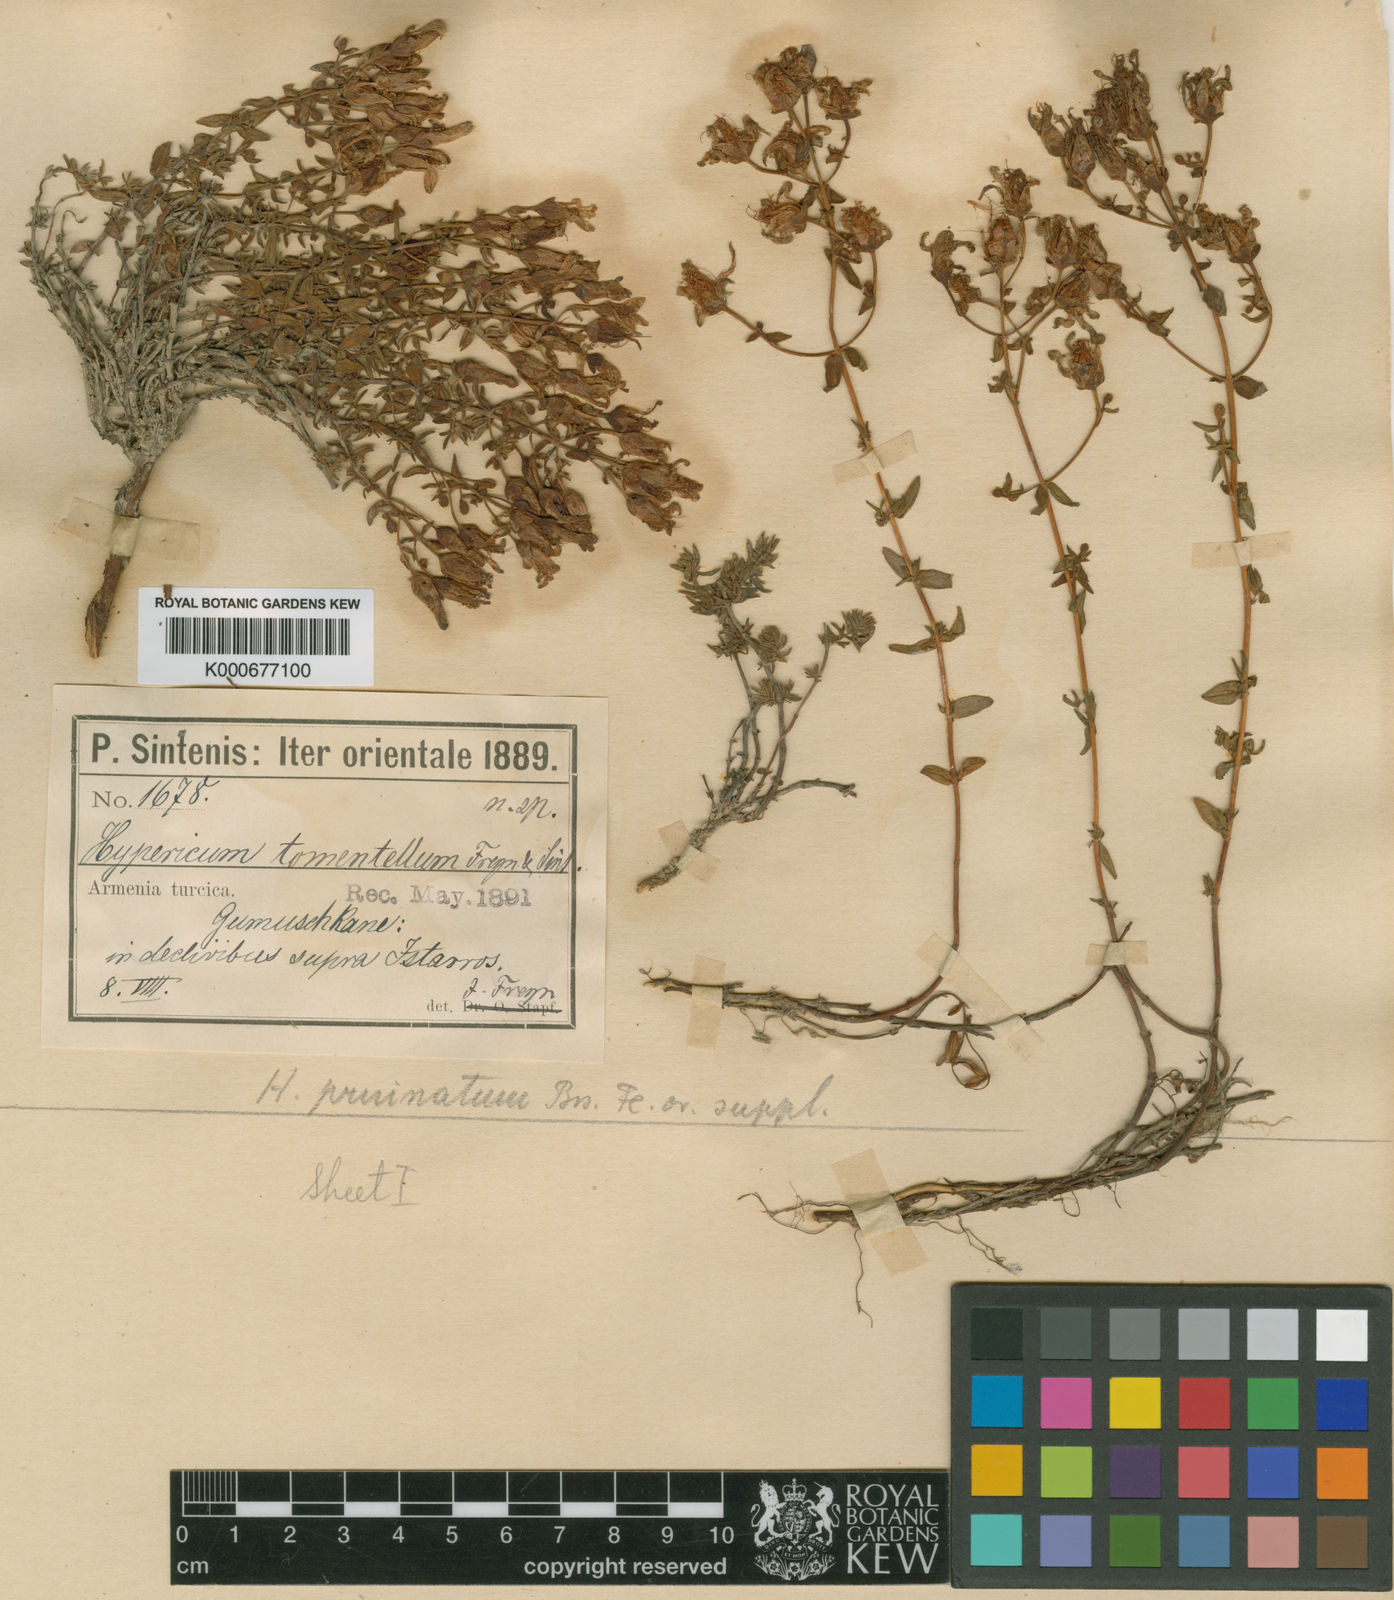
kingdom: Plantae
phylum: Tracheophyta
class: Magnoliopsida
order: Malpighiales
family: Hypericaceae
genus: Hypericum
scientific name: Hypericum pruinatum
